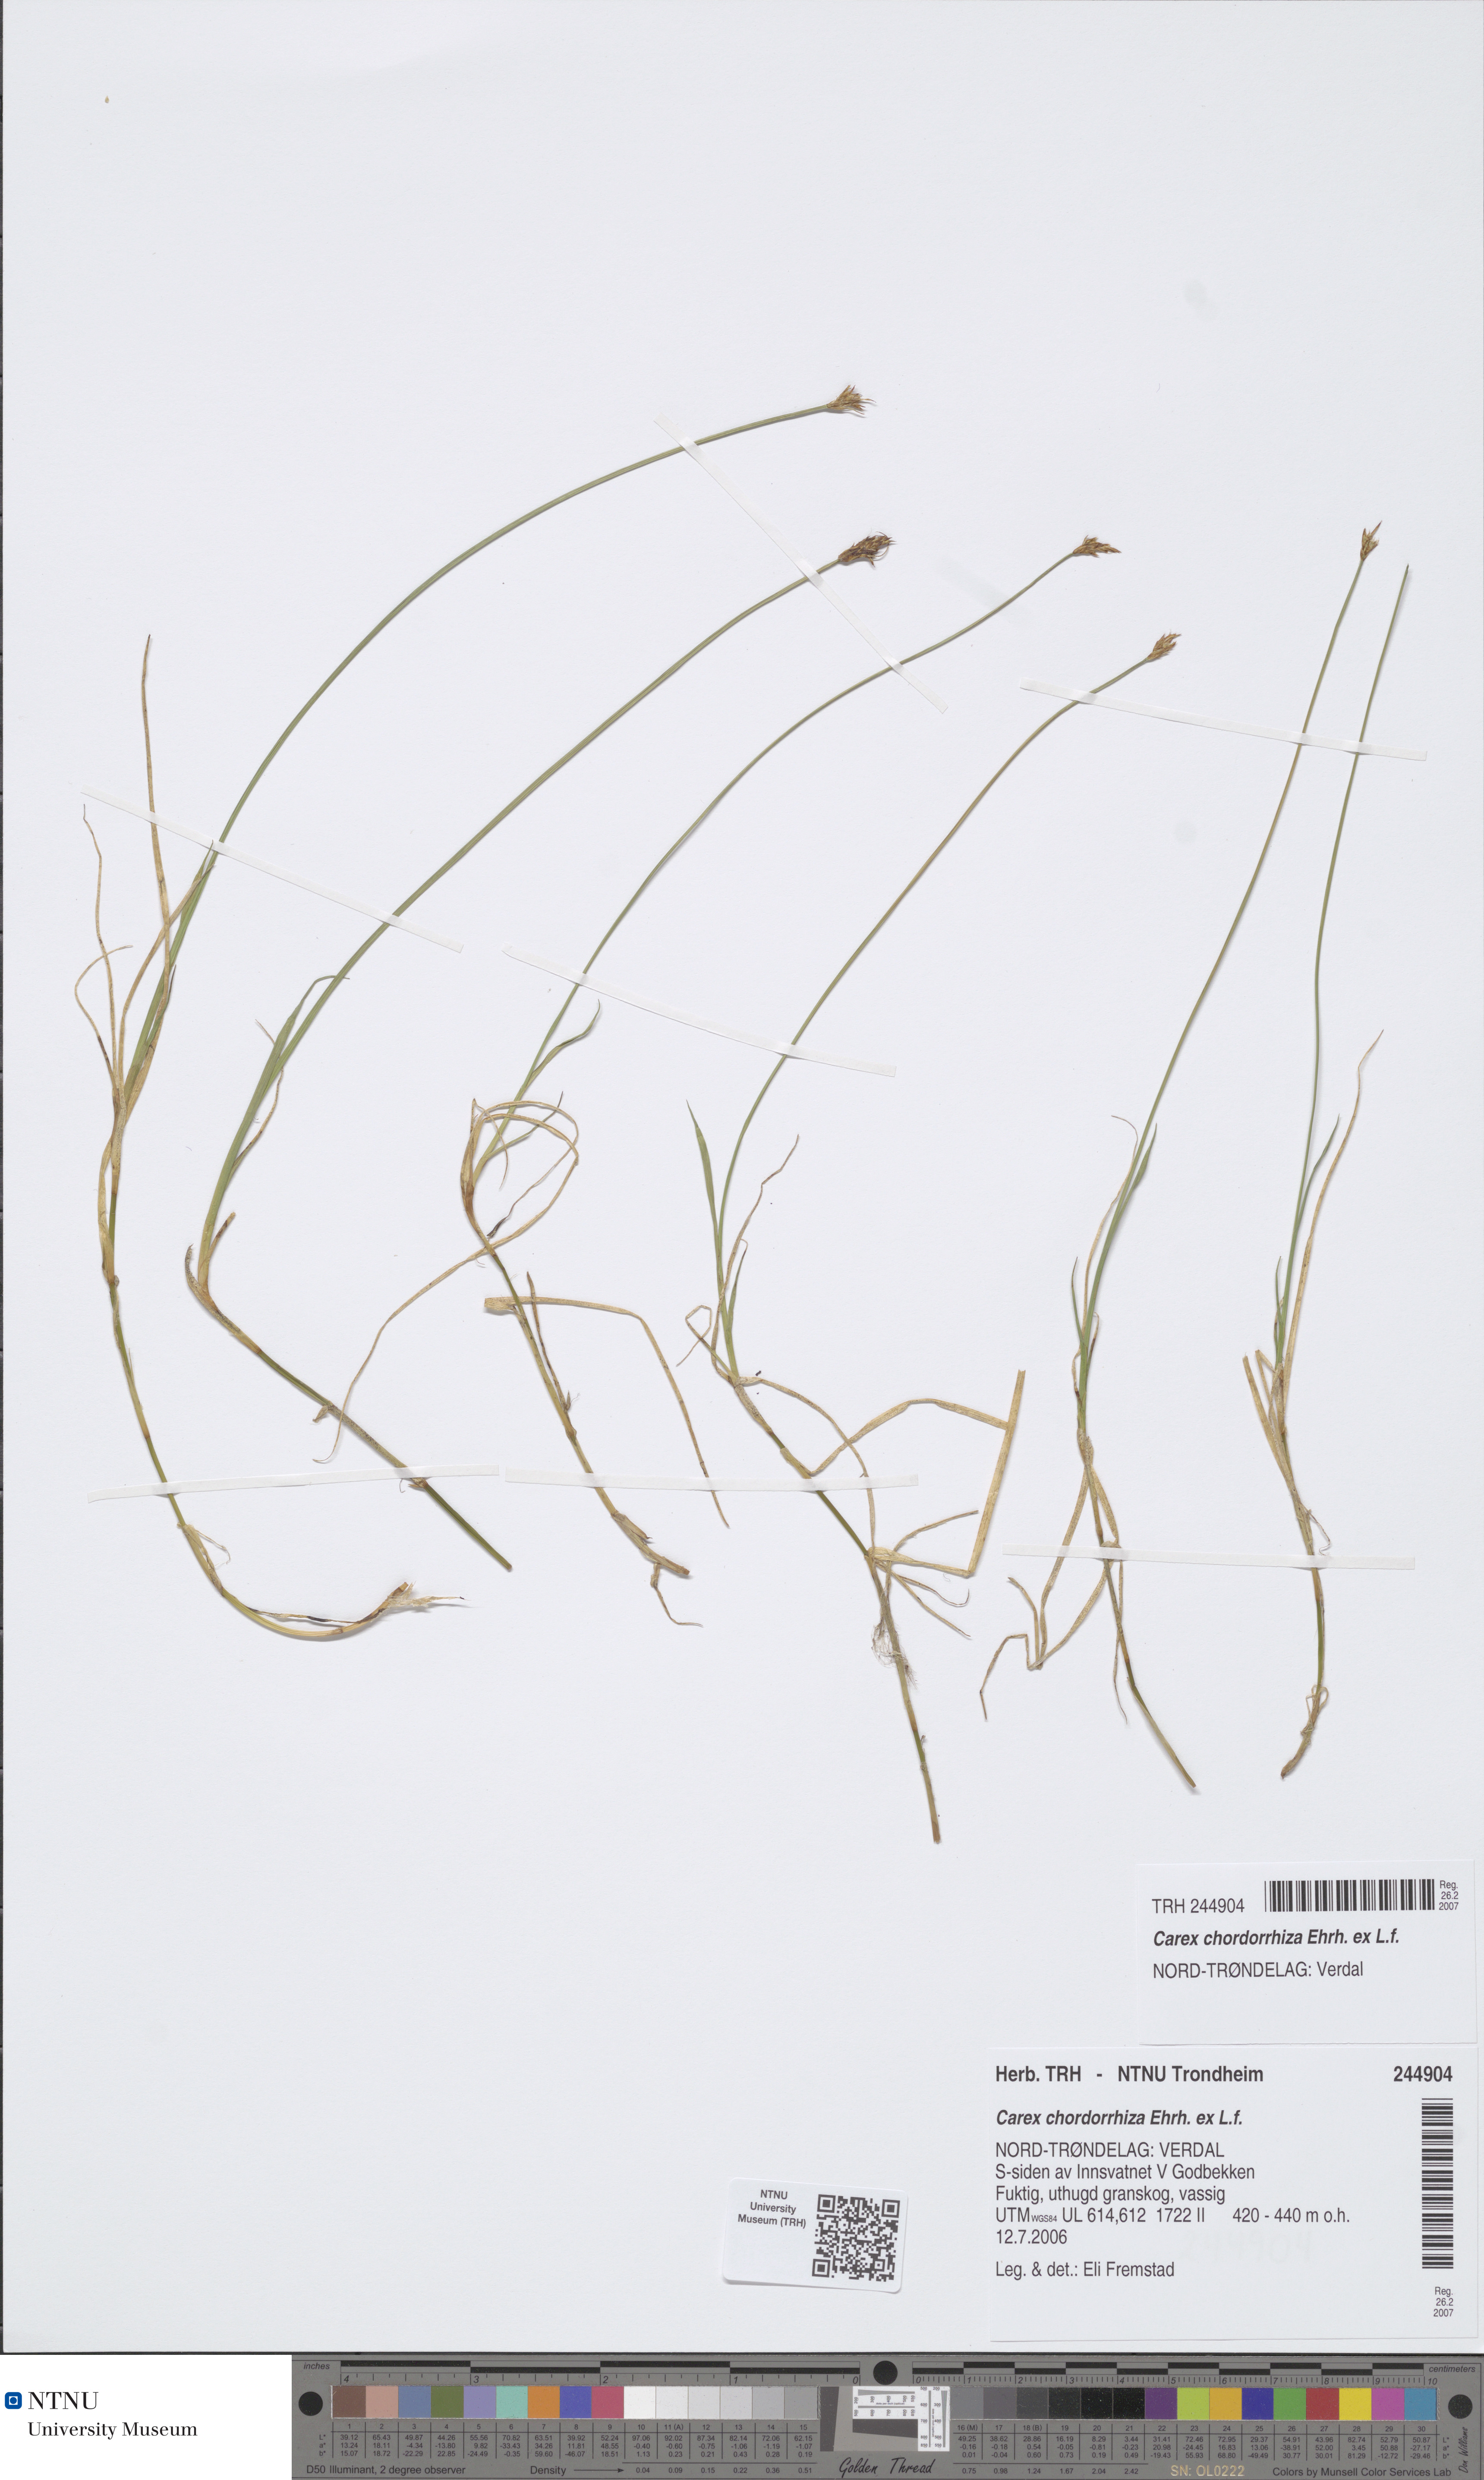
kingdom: Plantae
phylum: Tracheophyta
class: Liliopsida
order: Poales
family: Cyperaceae
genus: Carex
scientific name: Carex chordorrhiza
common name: String sedge
